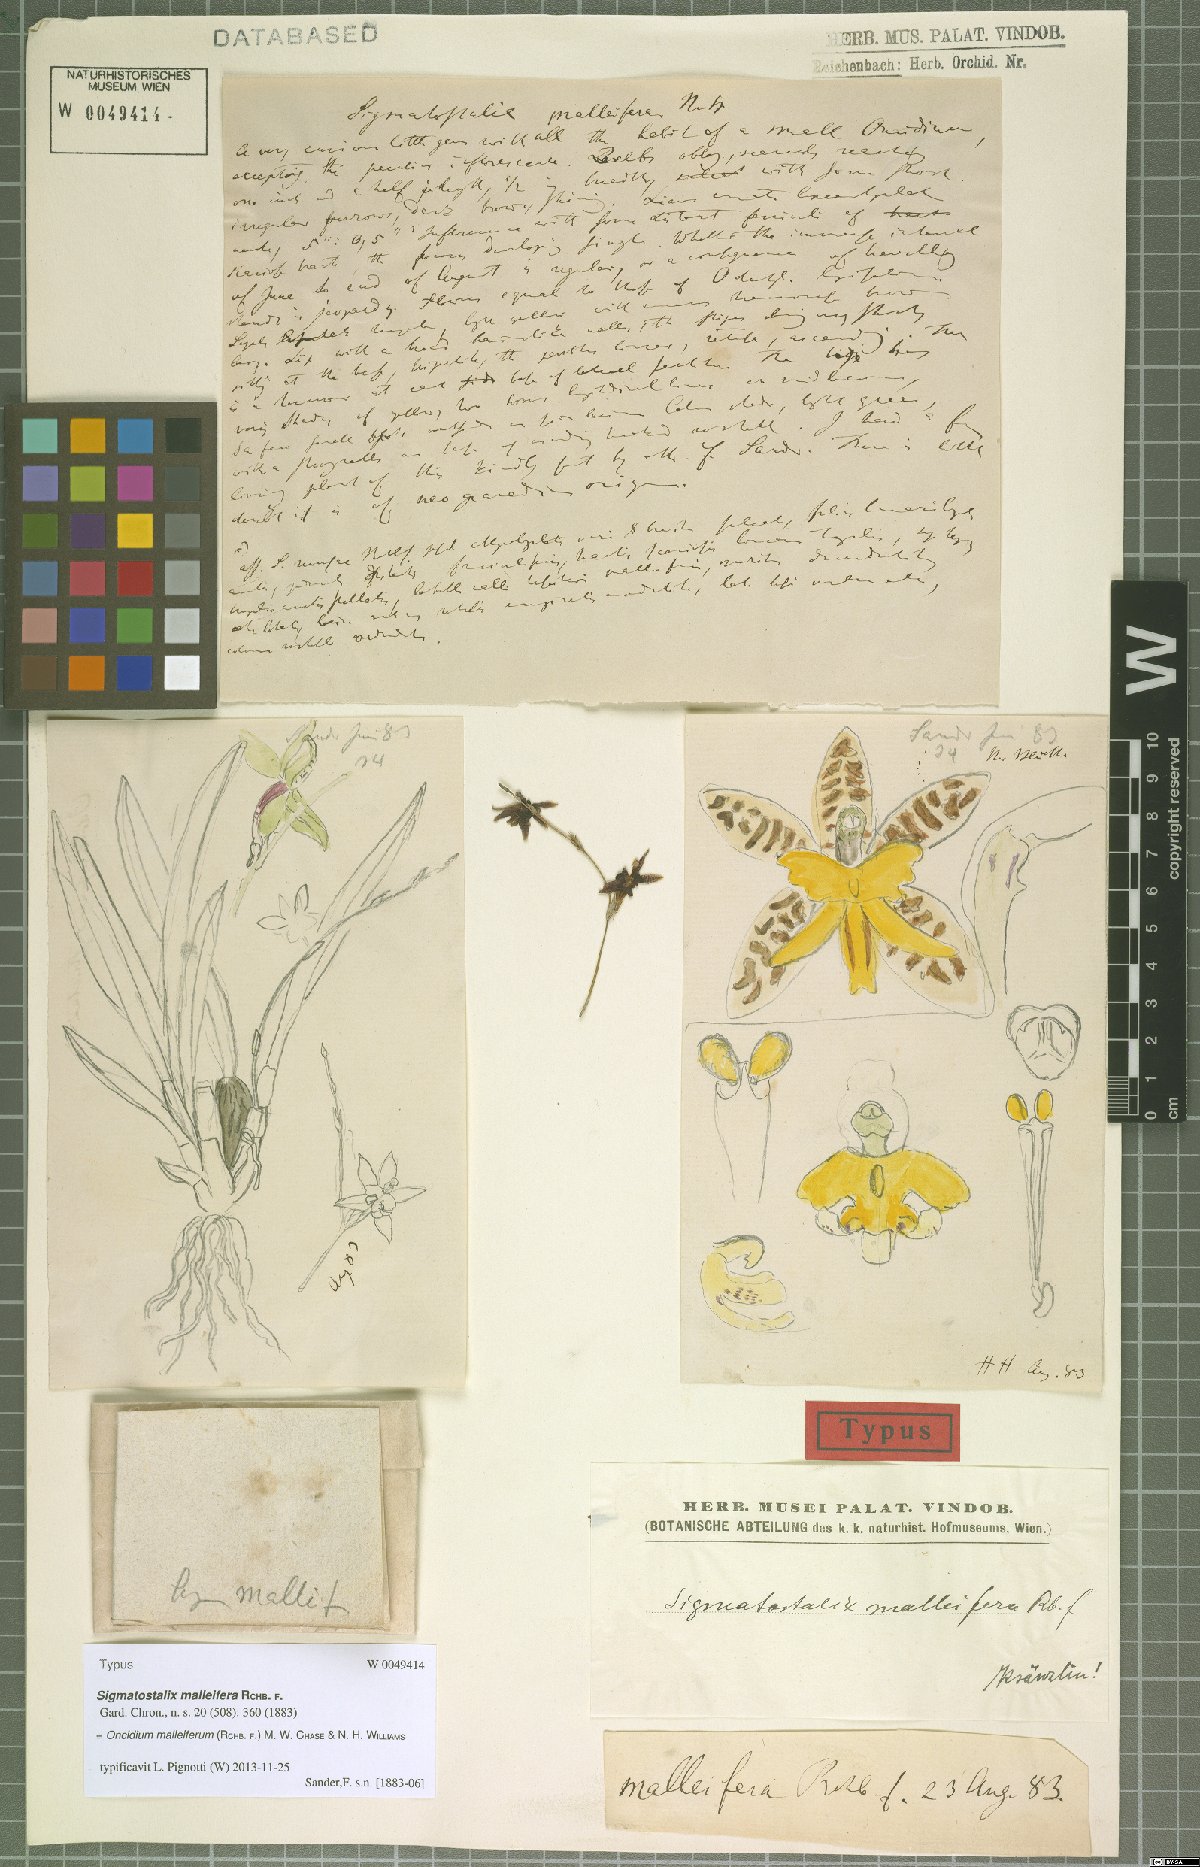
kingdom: Plantae
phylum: Tracheophyta
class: Liliopsida
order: Asparagales
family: Orchidaceae
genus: Oncidium
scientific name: Oncidium malleiferum
